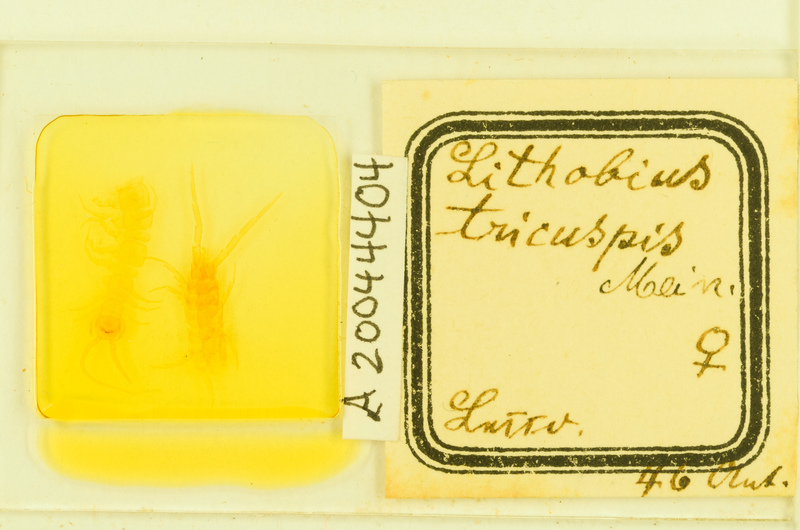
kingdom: Animalia
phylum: Arthropoda
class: Chilopoda
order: Lithobiomorpha
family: Lithobiidae
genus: Lithobius
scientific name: Lithobius tricuspis
